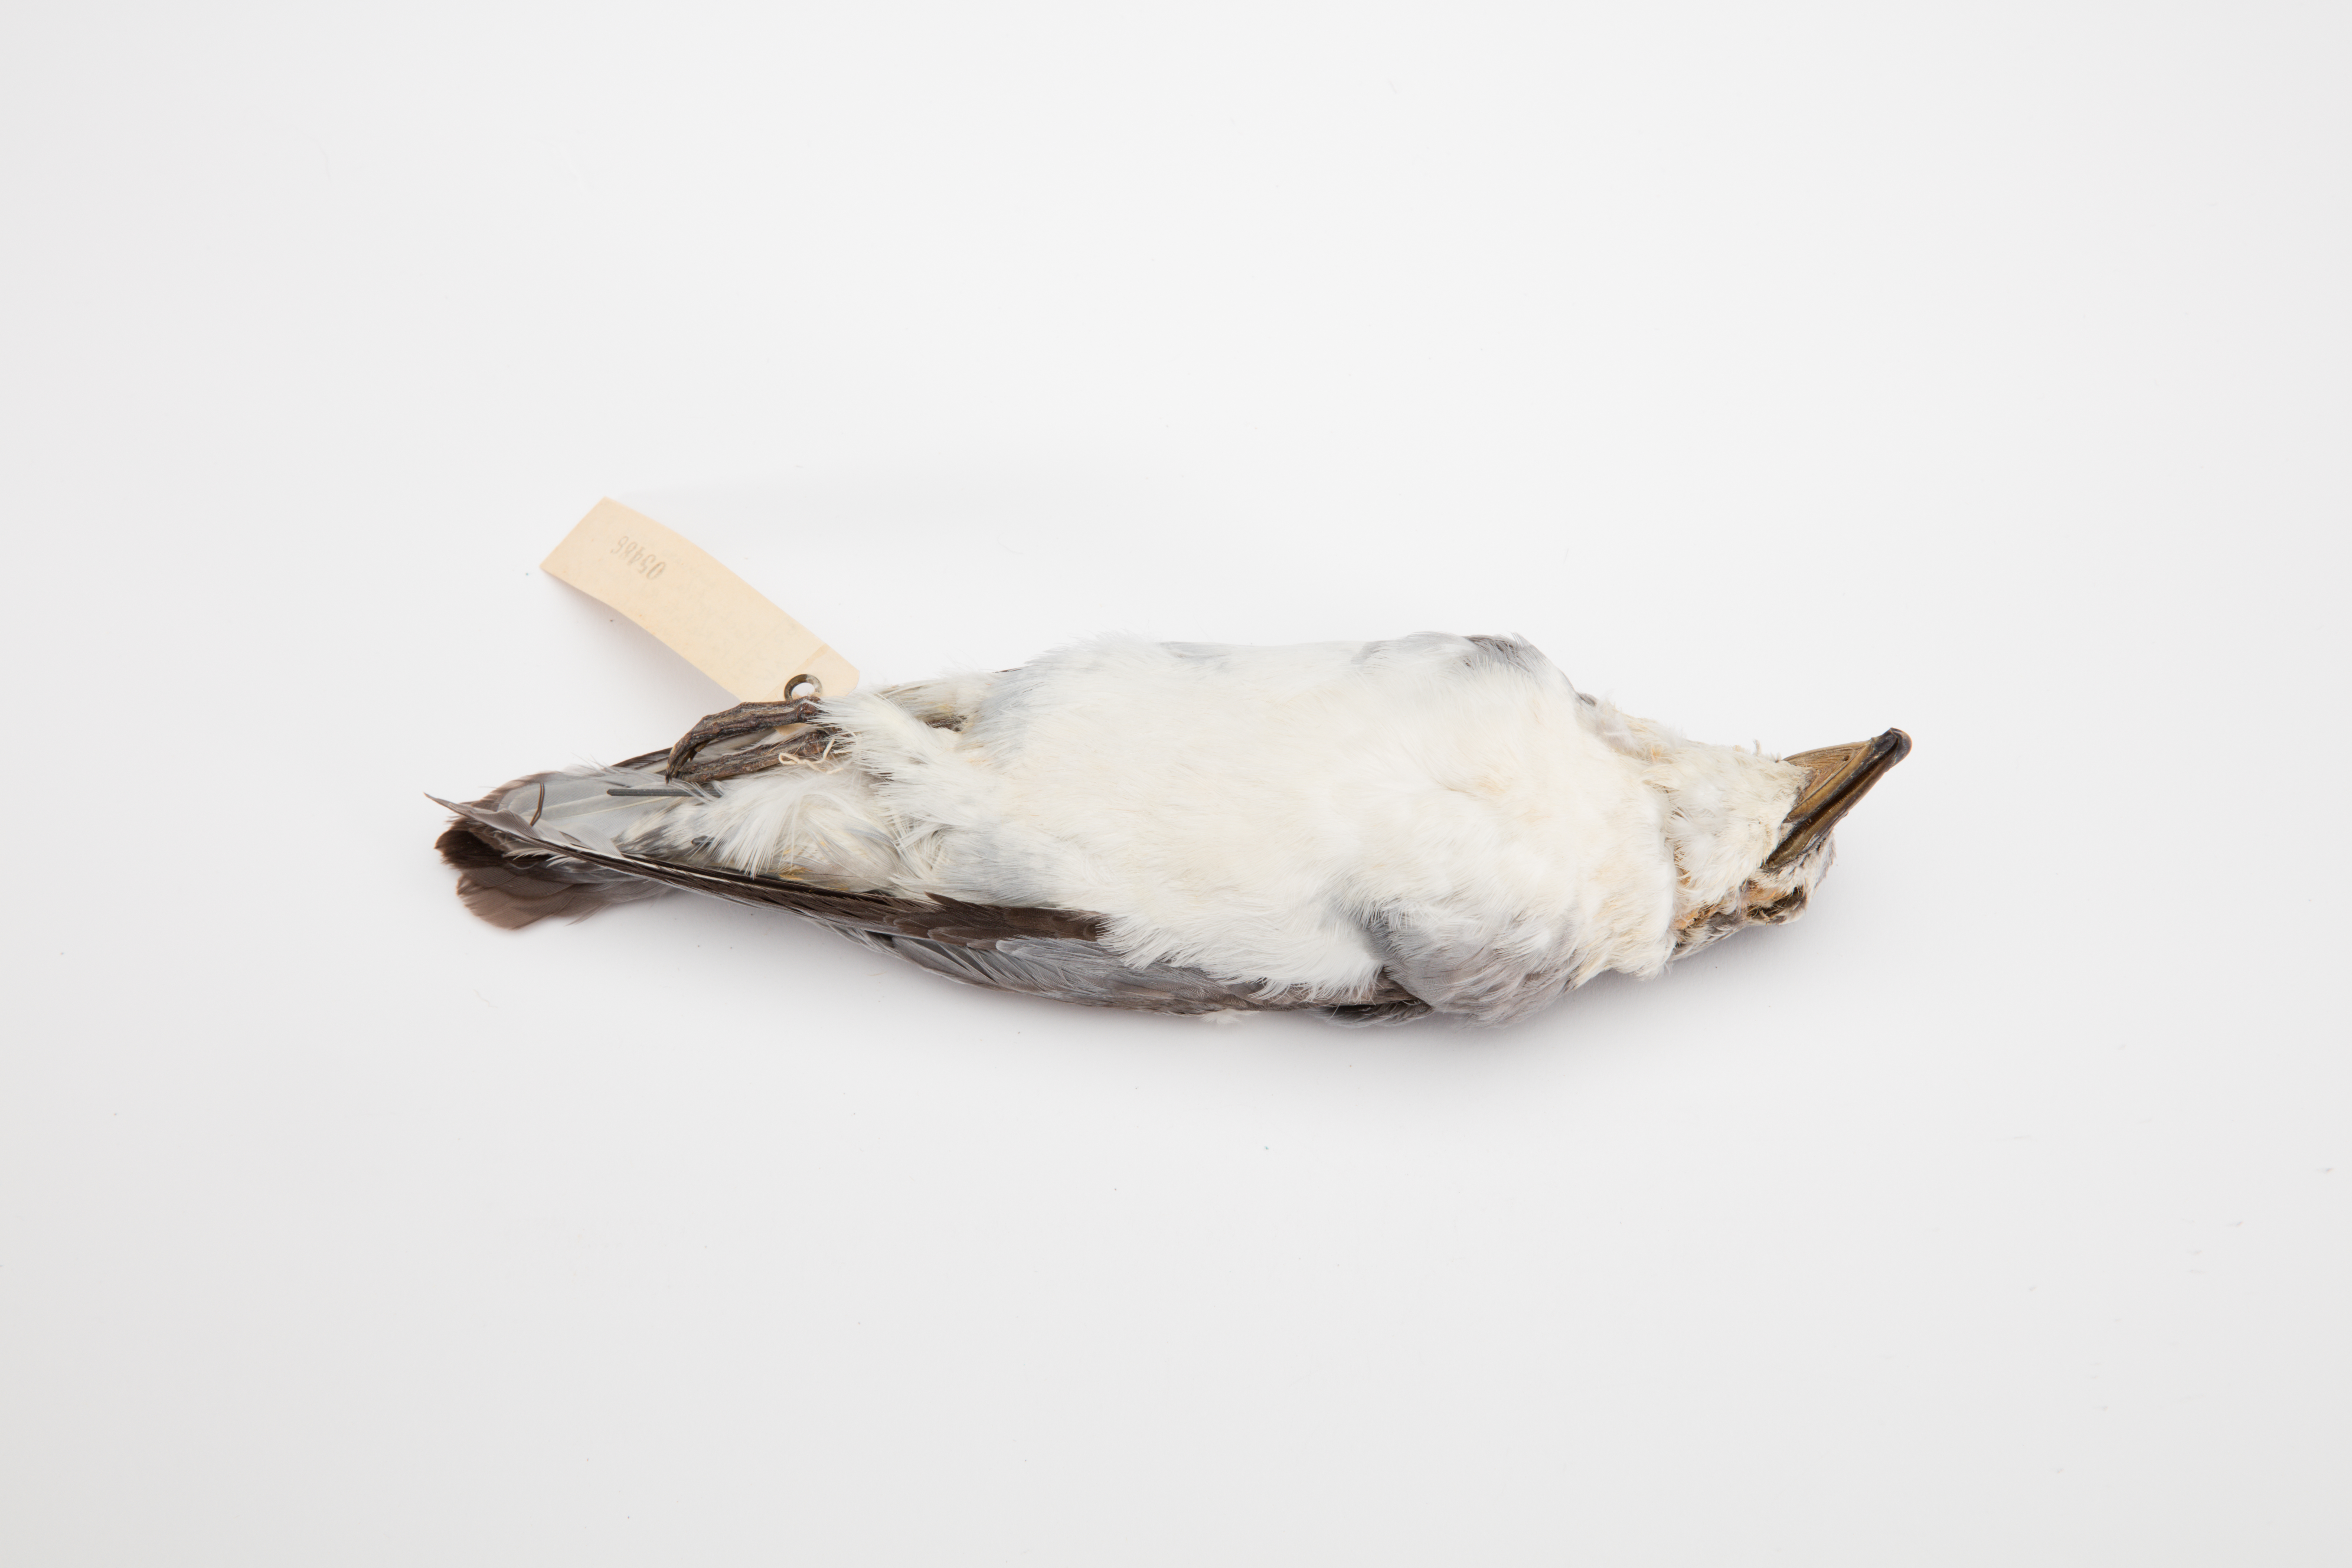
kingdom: Animalia
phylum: Chordata
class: Aves
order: Procellariiformes
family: Procellariidae
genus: Pachyptila
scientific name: Pachyptila salvini
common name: Salvin's prion
